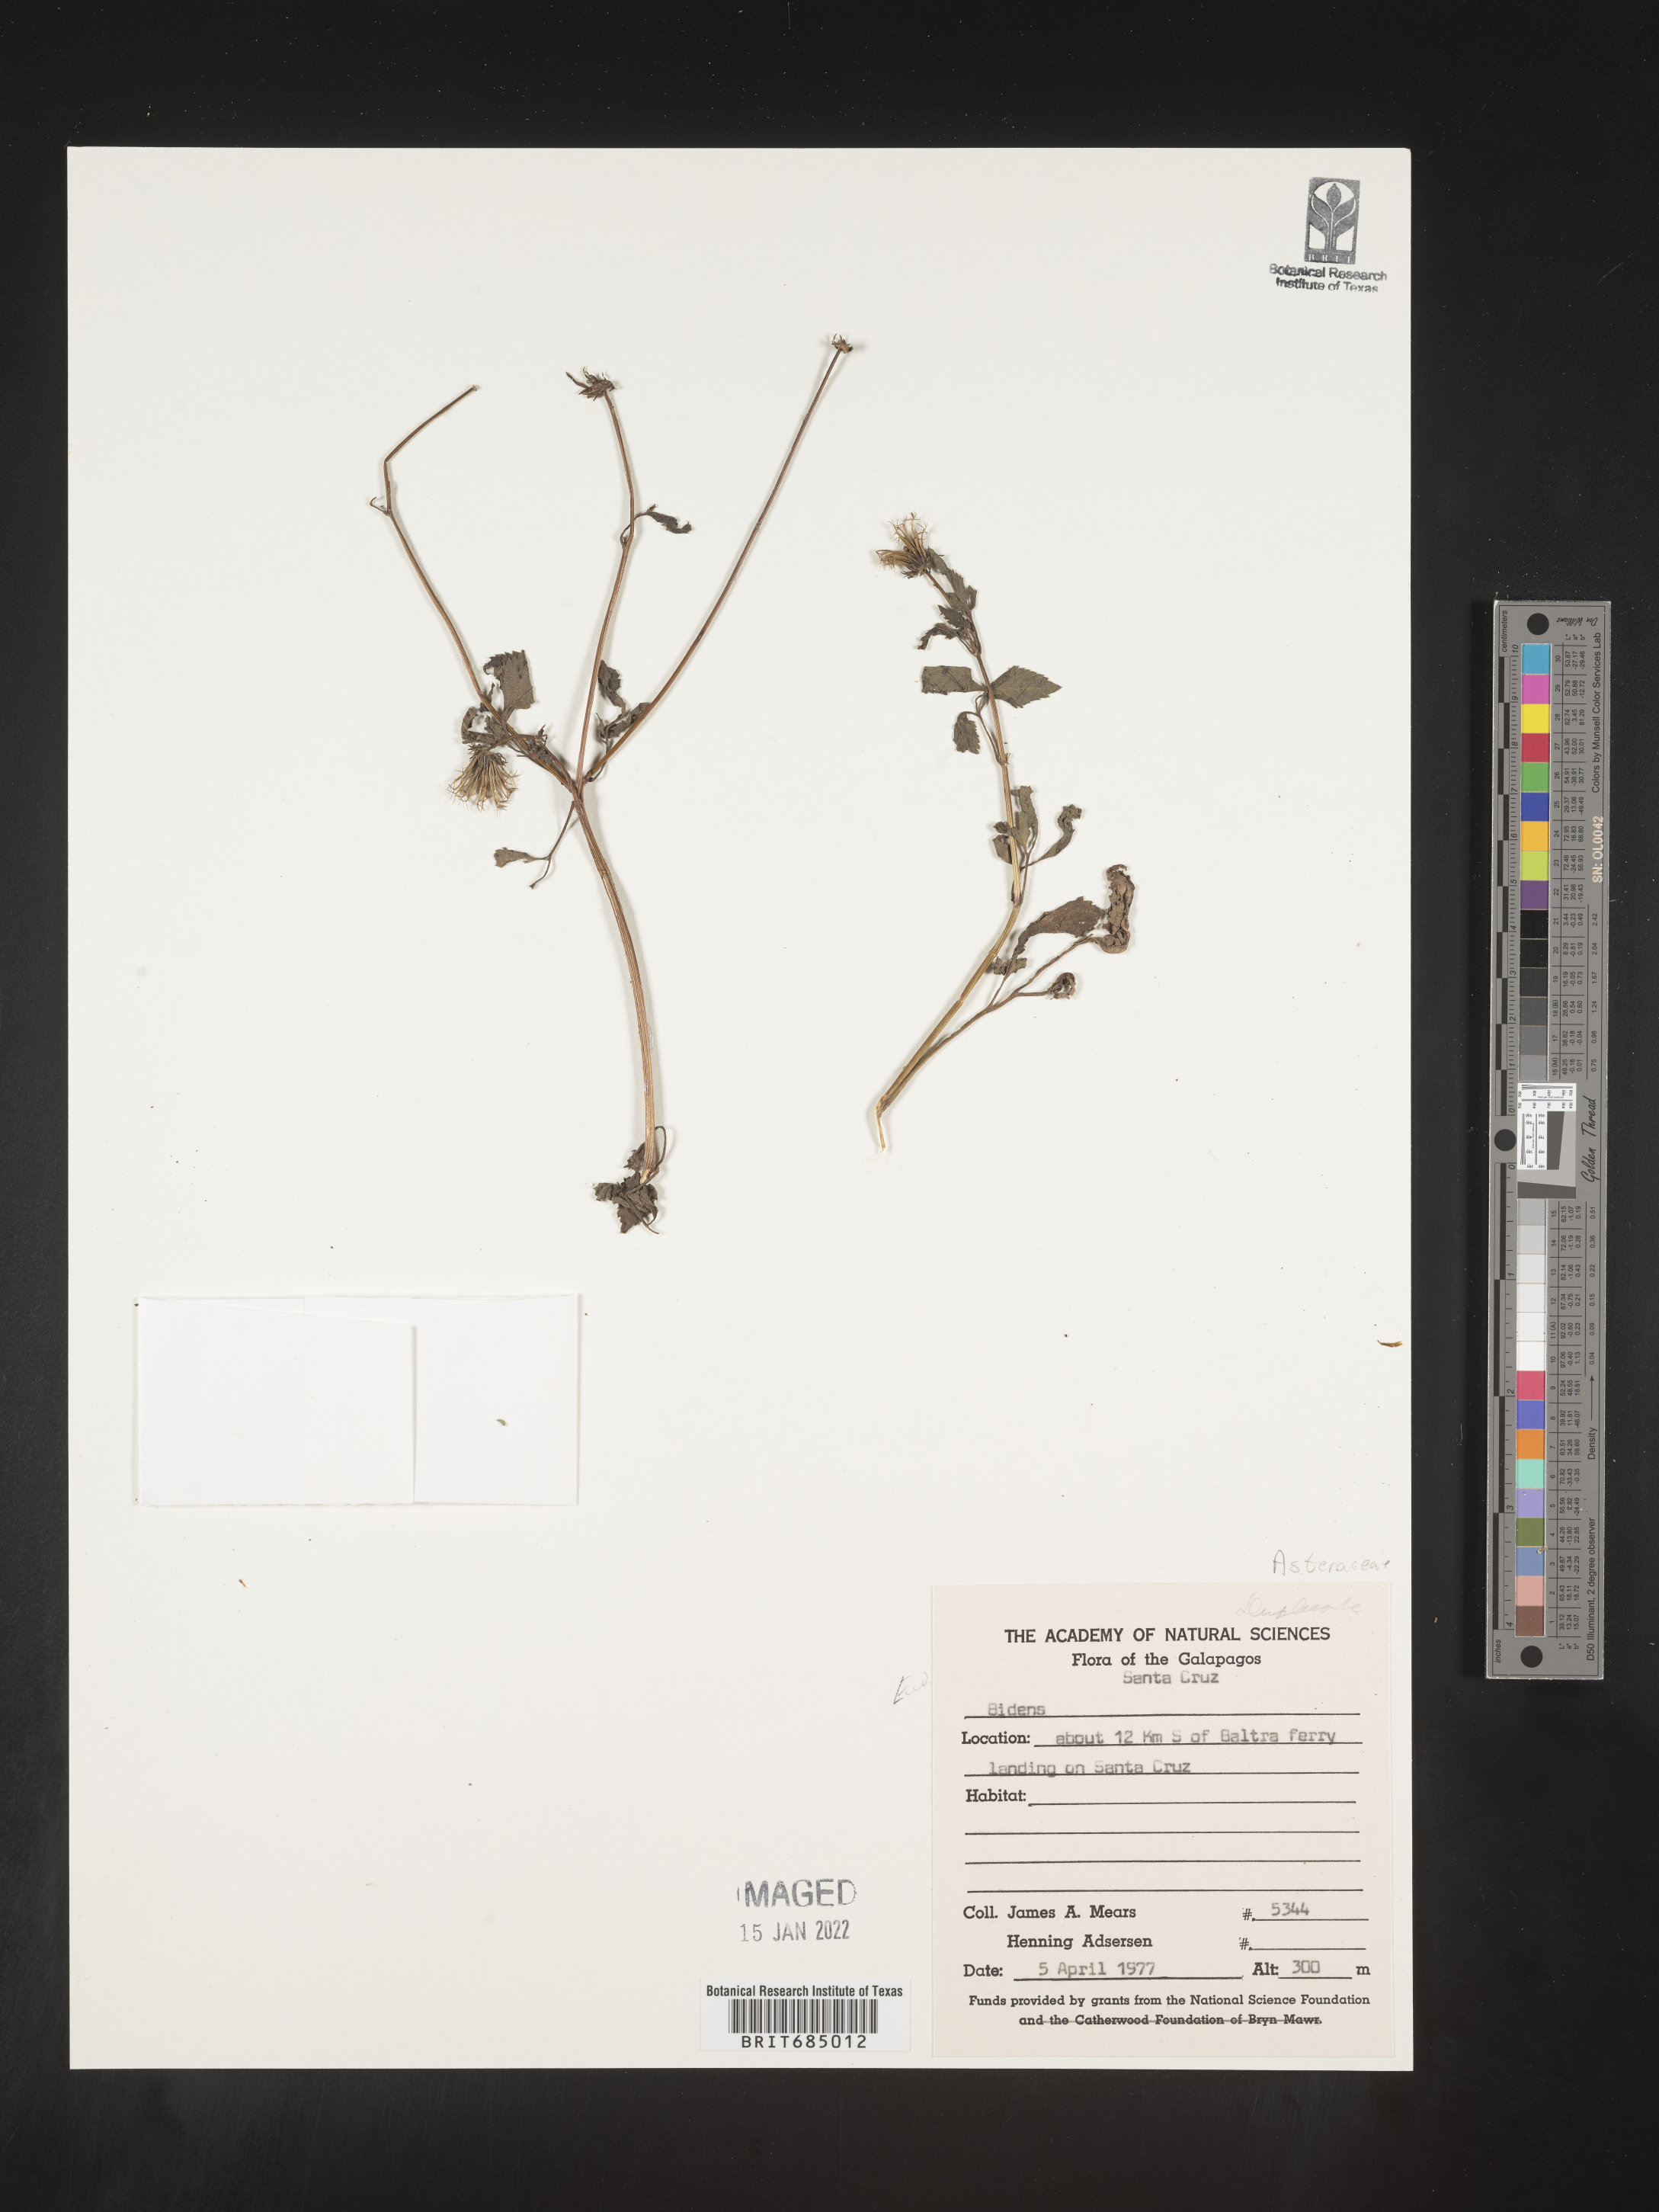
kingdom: Plantae
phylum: Tracheophyta
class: Magnoliopsida
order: Asterales
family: Asteraceae
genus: Bidens
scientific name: Bidens rubifolia
